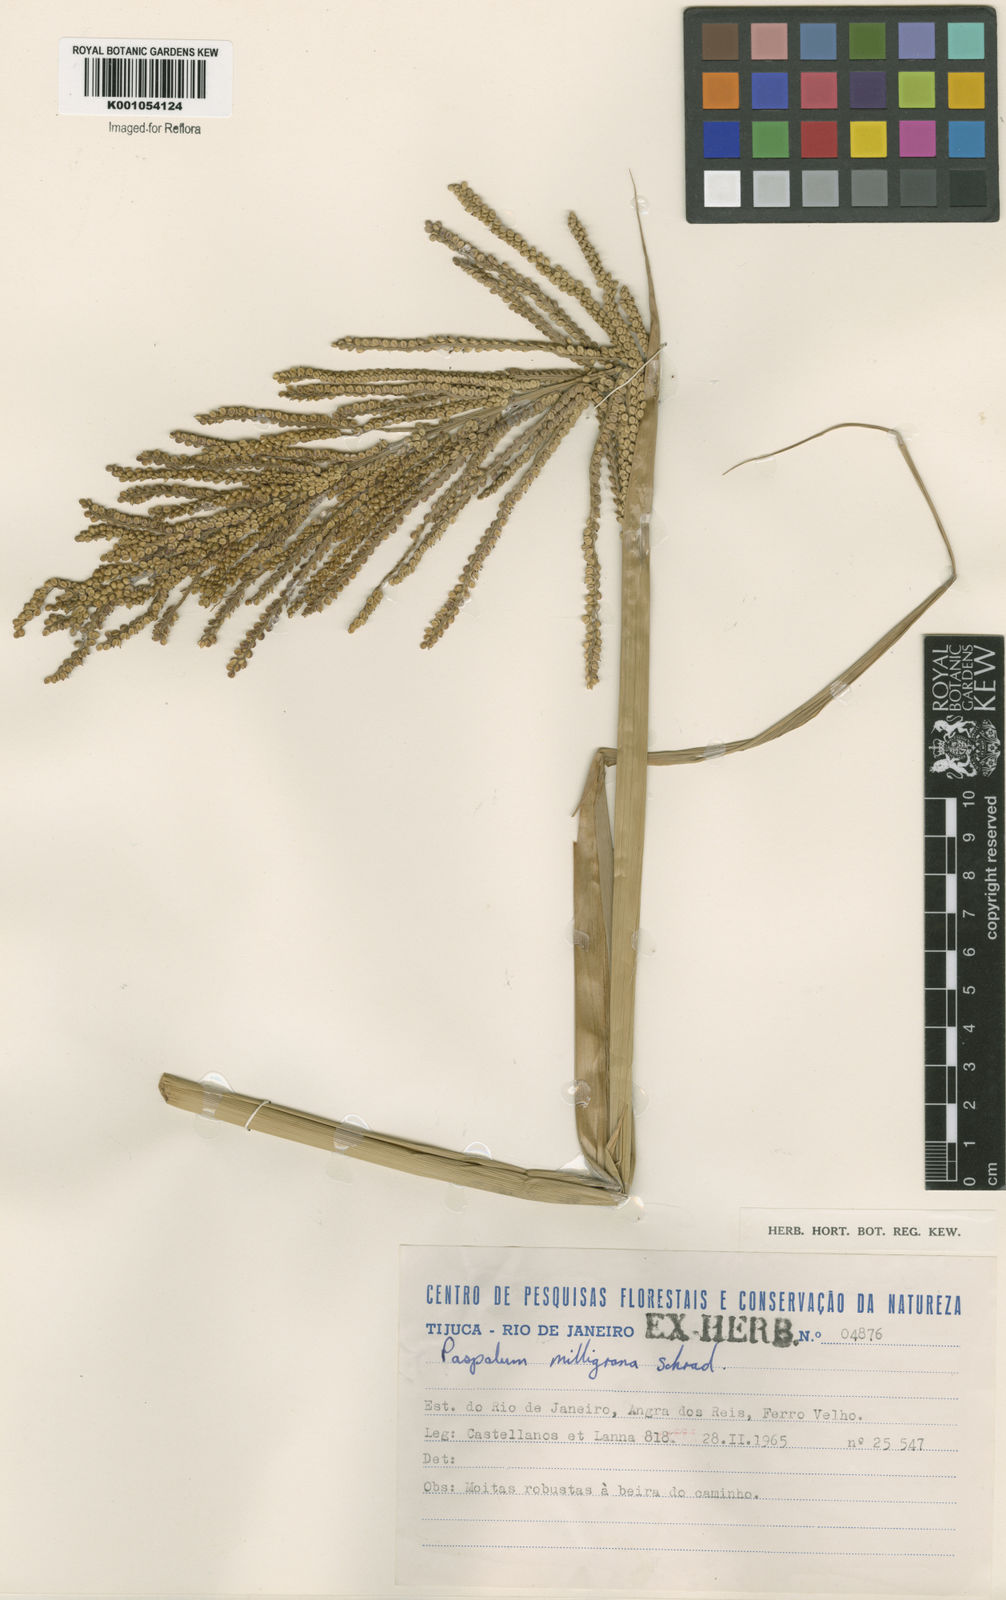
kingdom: Plantae
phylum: Tracheophyta
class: Liliopsida
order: Poales
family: Poaceae
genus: Paspalum
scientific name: Paspalum
